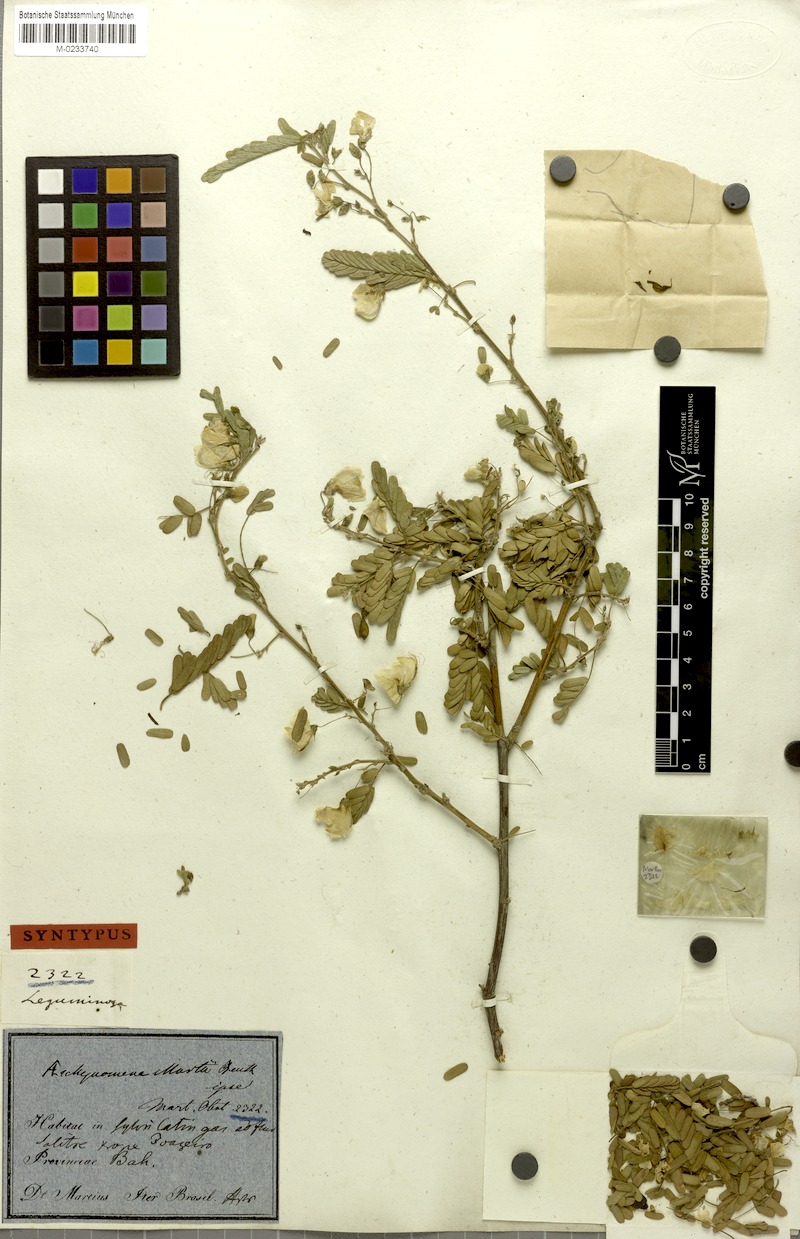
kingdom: Plantae
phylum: Tracheophyta
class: Magnoliopsida
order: Fabales
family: Fabaceae
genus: Ctenodon
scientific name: Ctenodon martii
